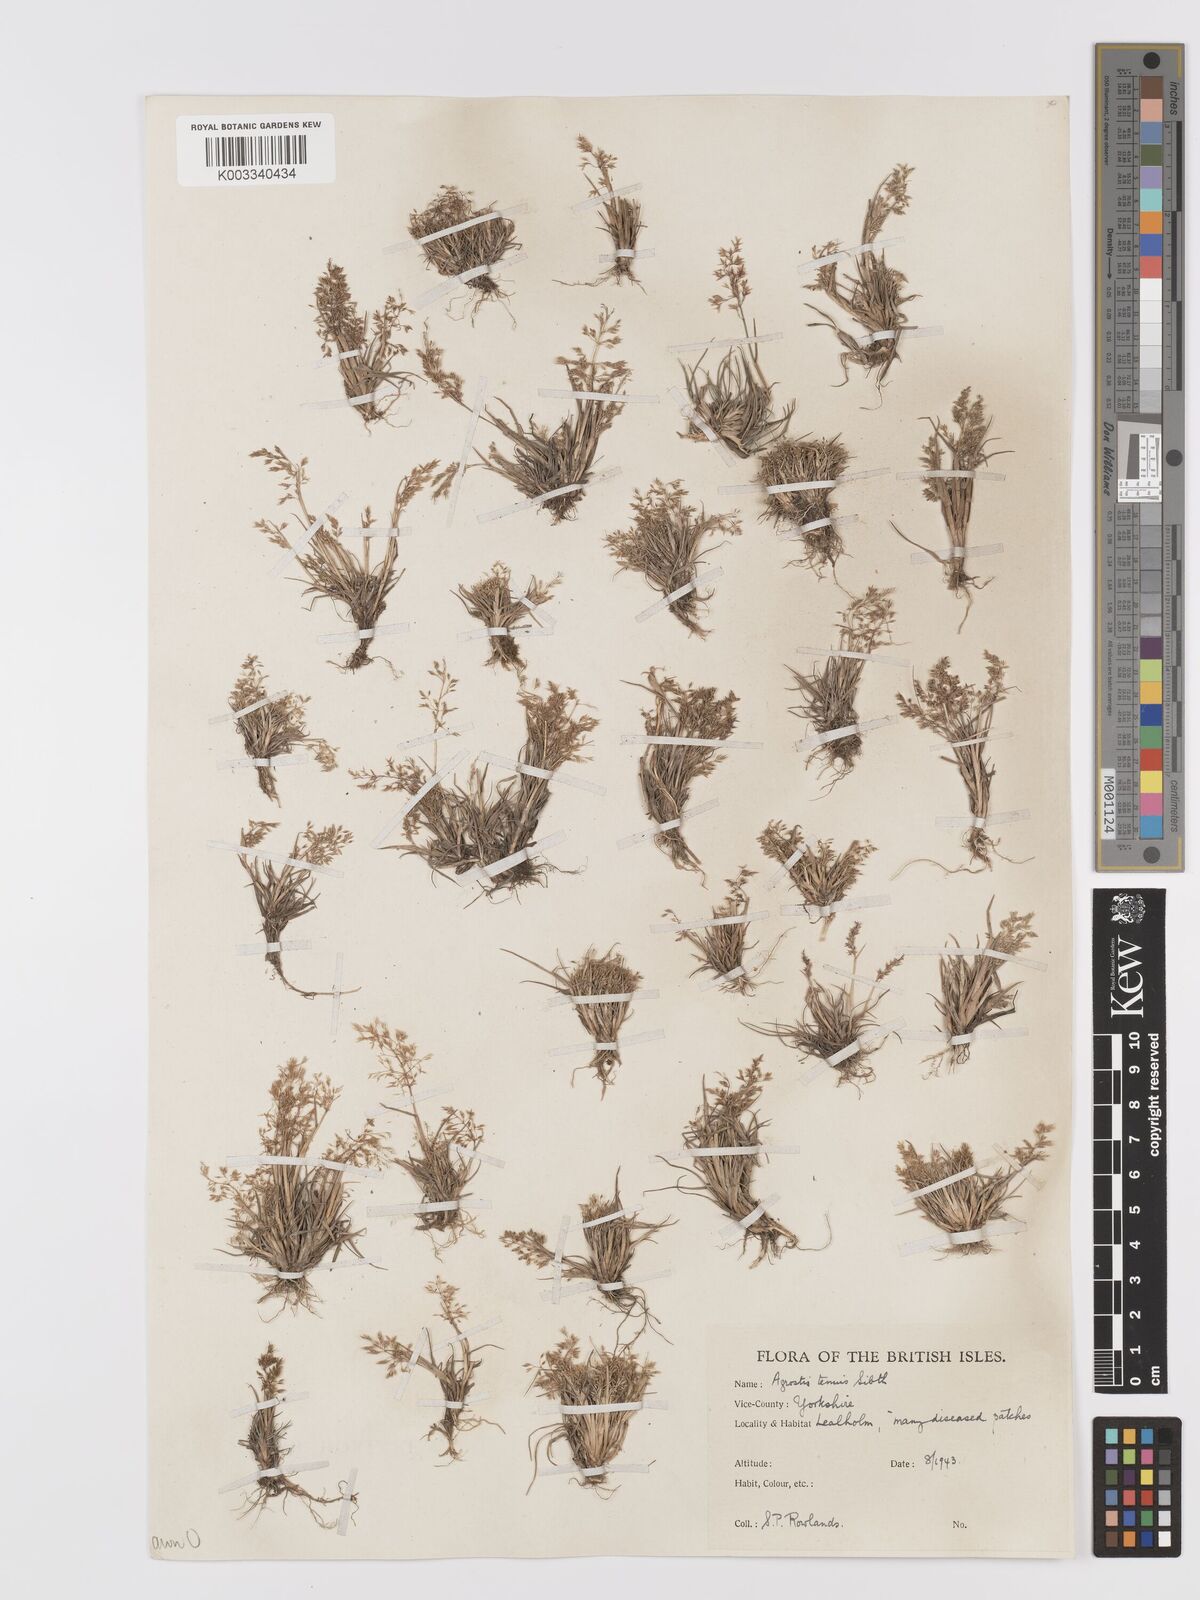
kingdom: Plantae
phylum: Tracheophyta
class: Liliopsida
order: Poales
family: Poaceae
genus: Agrostis
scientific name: Agrostis capillaris
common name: Colonial bentgrass
